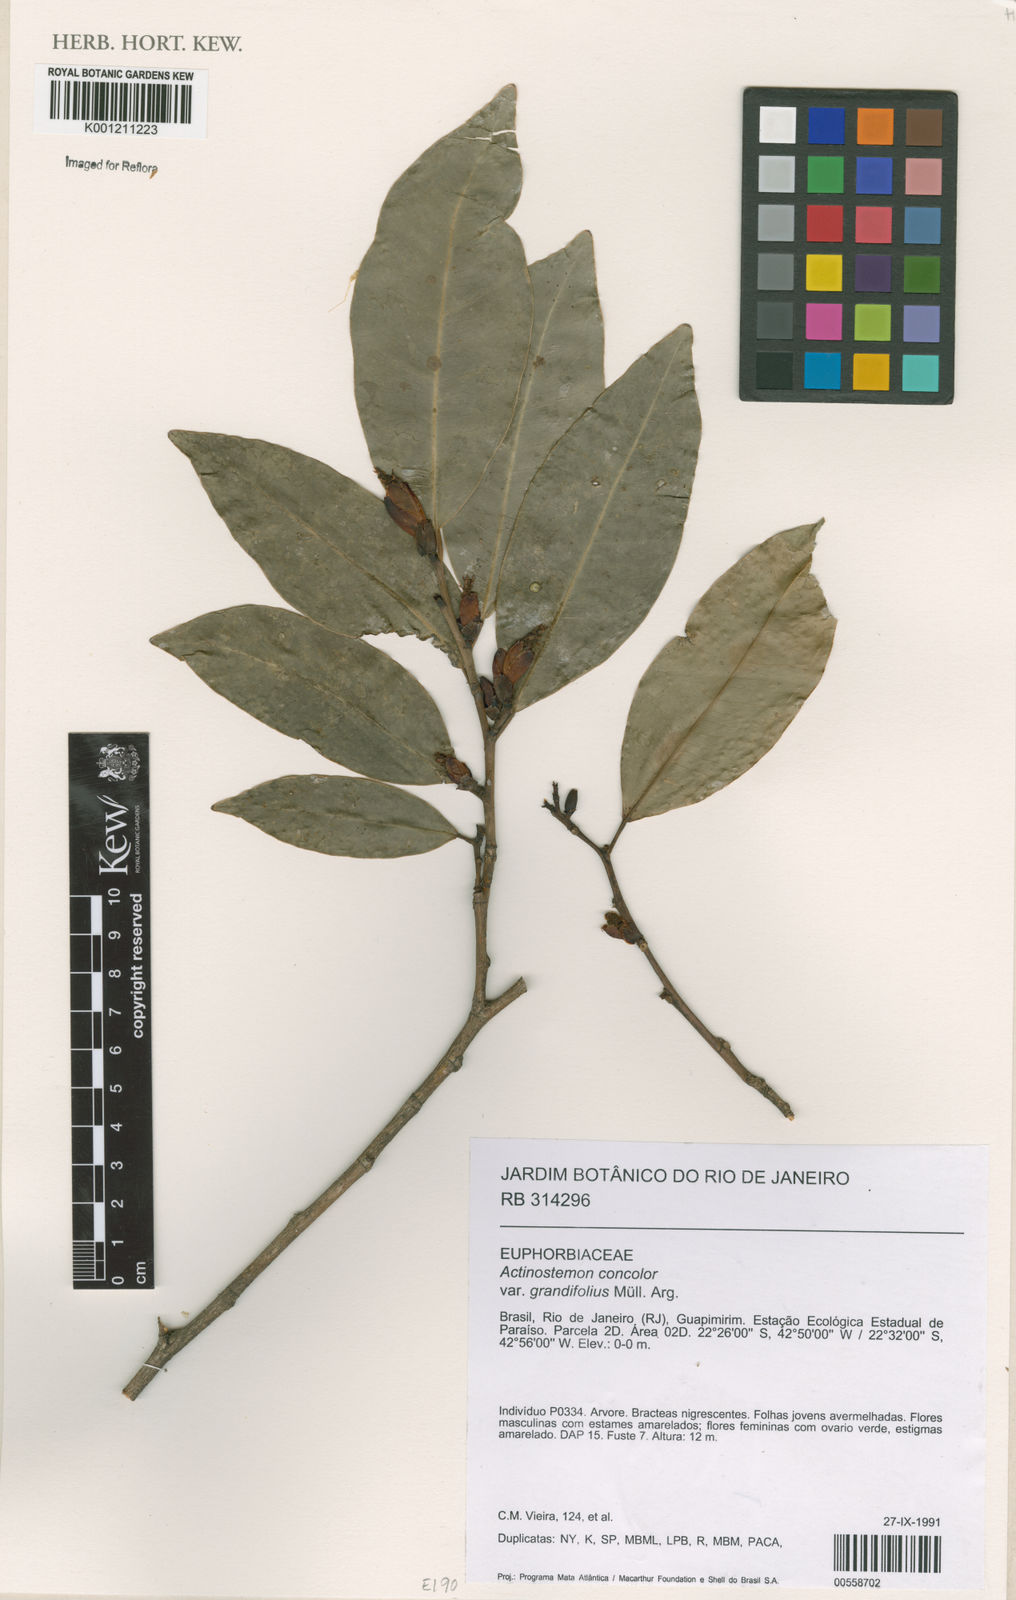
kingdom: Plantae
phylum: Tracheophyta
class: Magnoliopsida
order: Malpighiales
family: Euphorbiaceae
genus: Actinostemon
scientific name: Actinostemon
